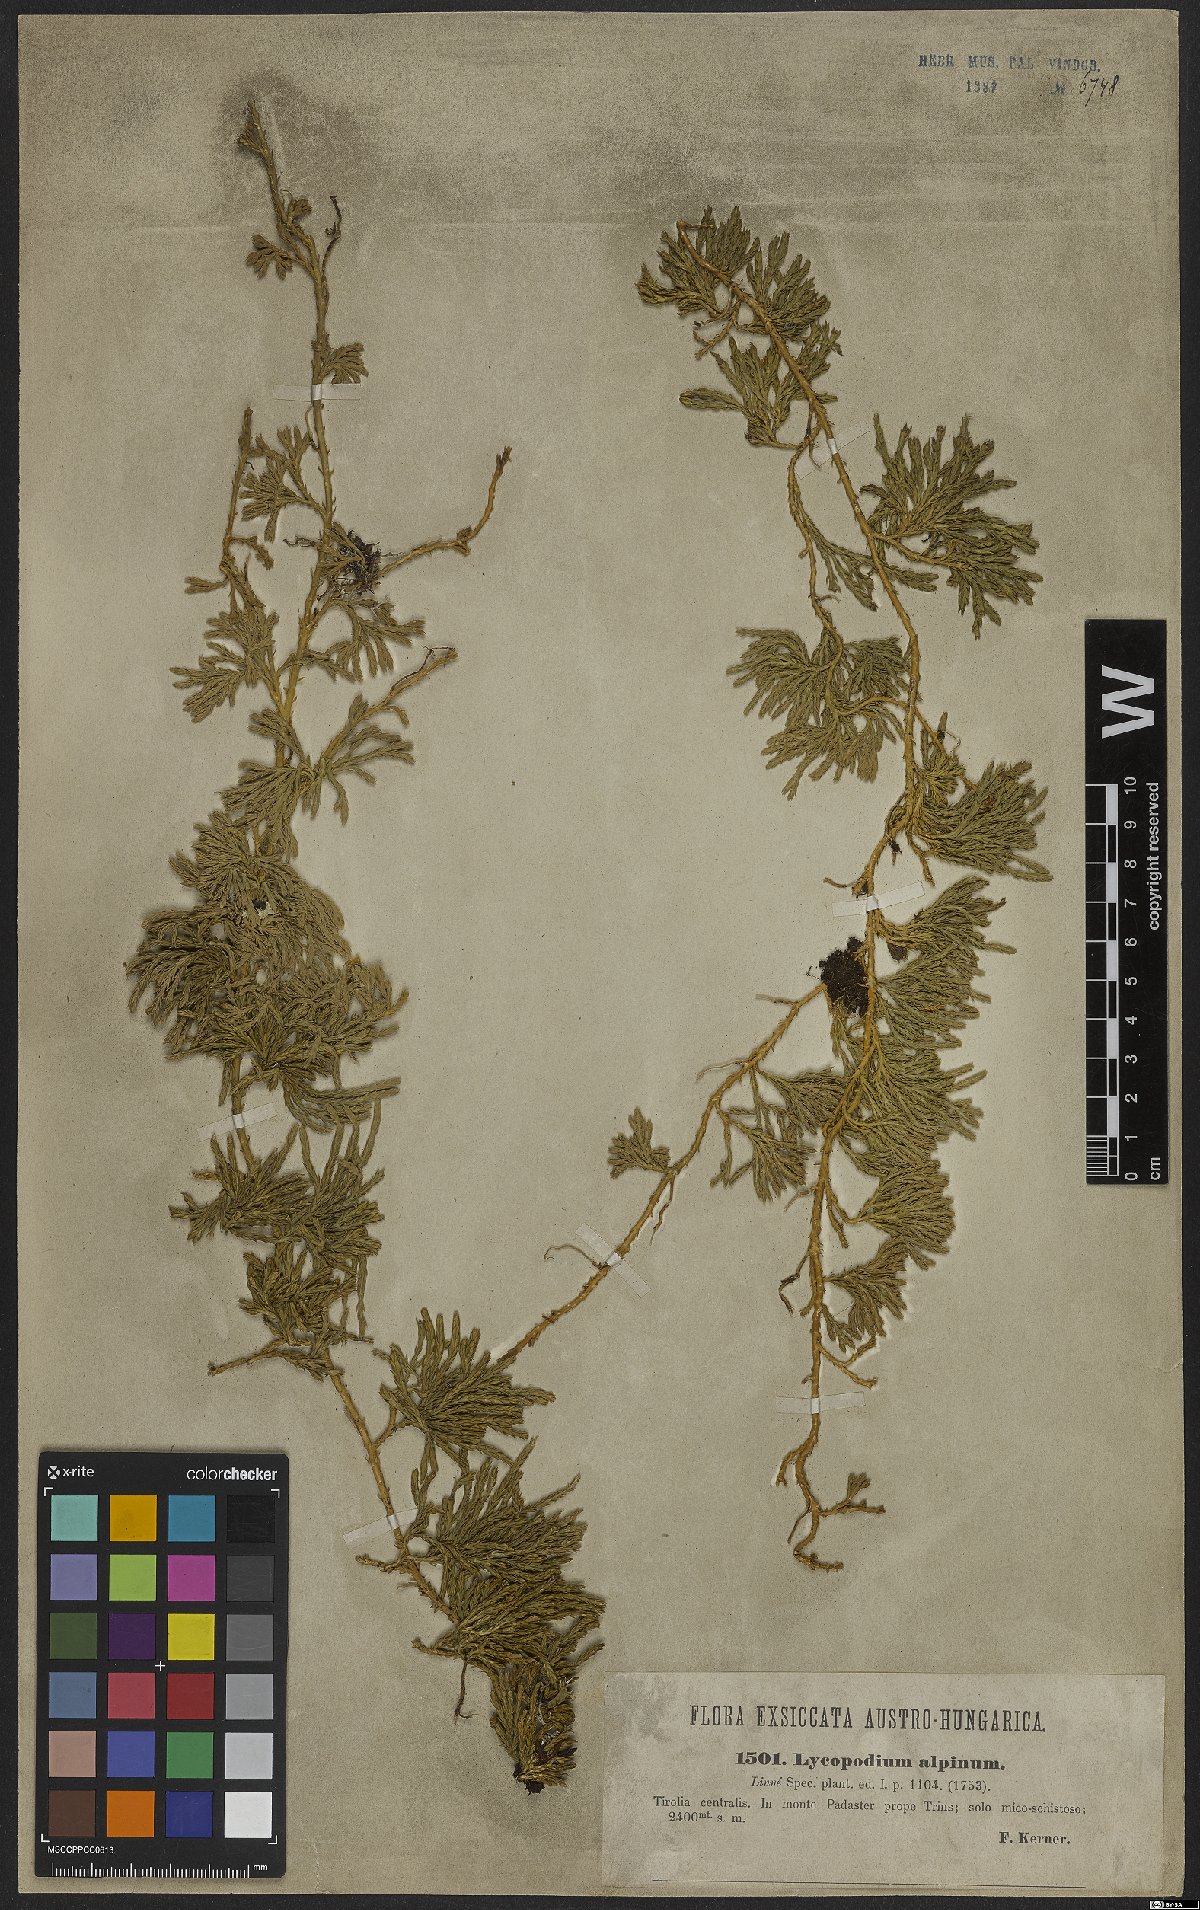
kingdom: Plantae
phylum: Tracheophyta
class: Lycopodiopsida
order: Lycopodiales
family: Lycopodiaceae
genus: Diphasiastrum
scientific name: Diphasiastrum alpinum
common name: Alpine clubmoss
